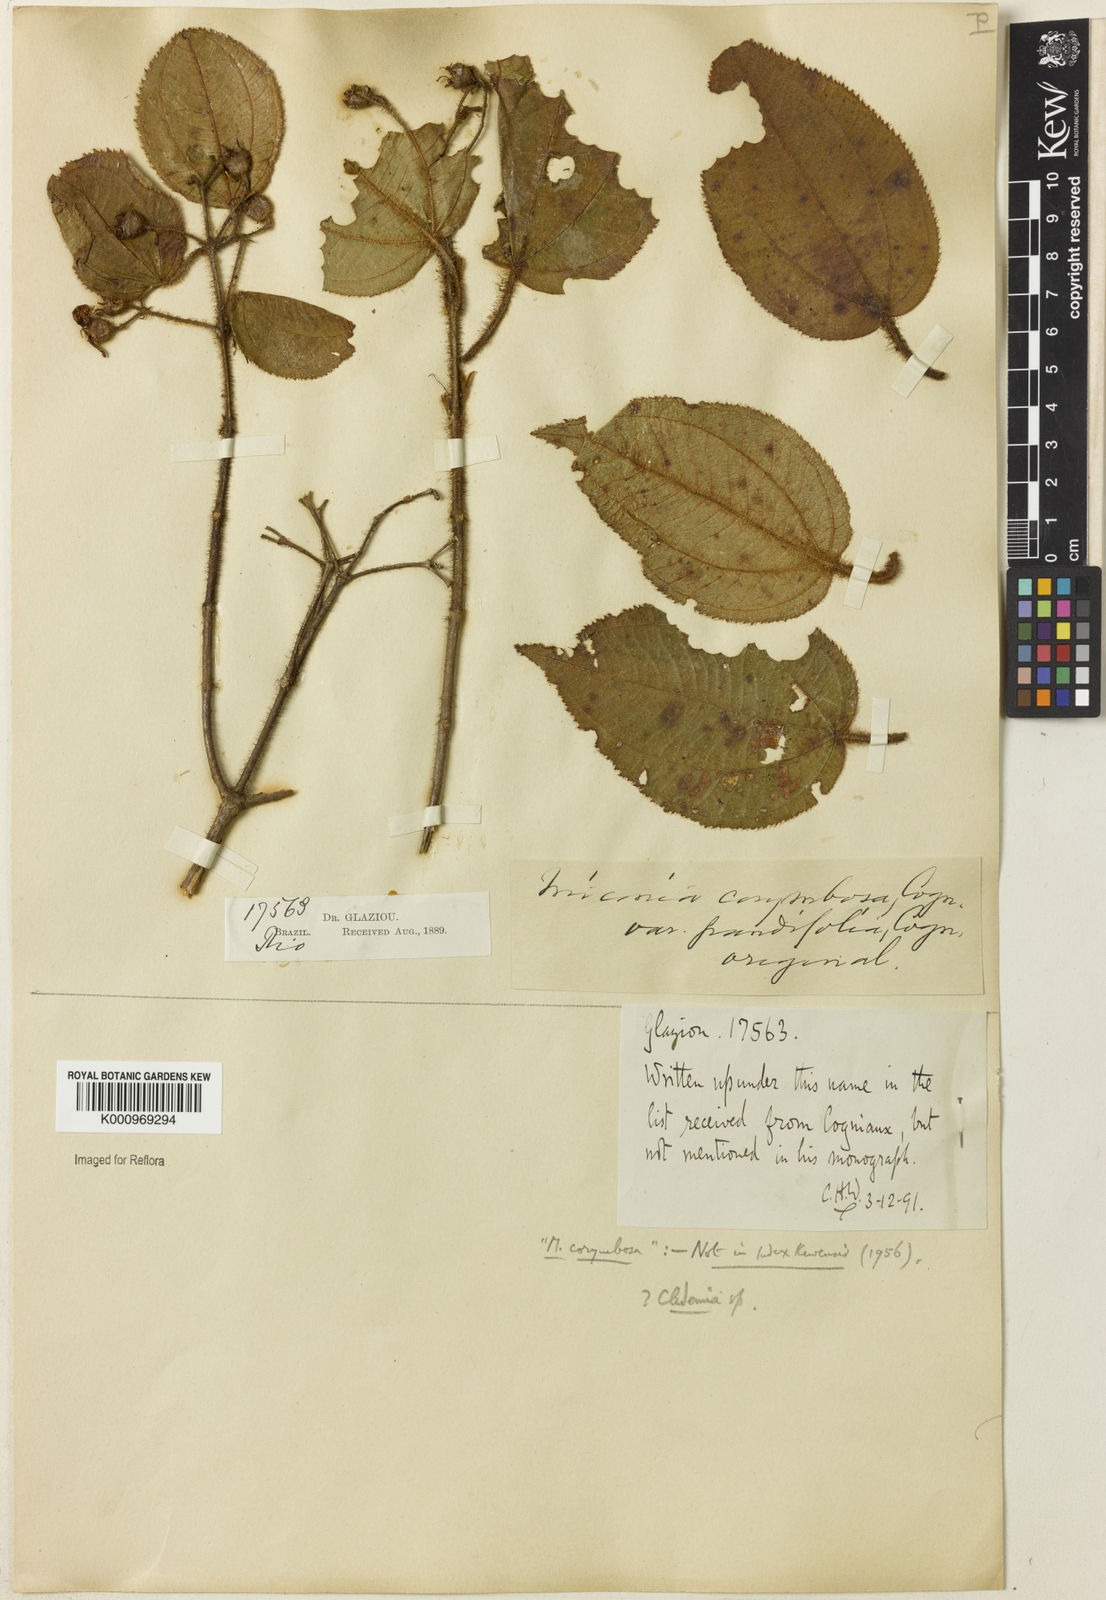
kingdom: Plantae
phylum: Tracheophyta
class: Magnoliopsida
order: Myrtales
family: Melastomataceae
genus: Miconia
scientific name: Miconia
